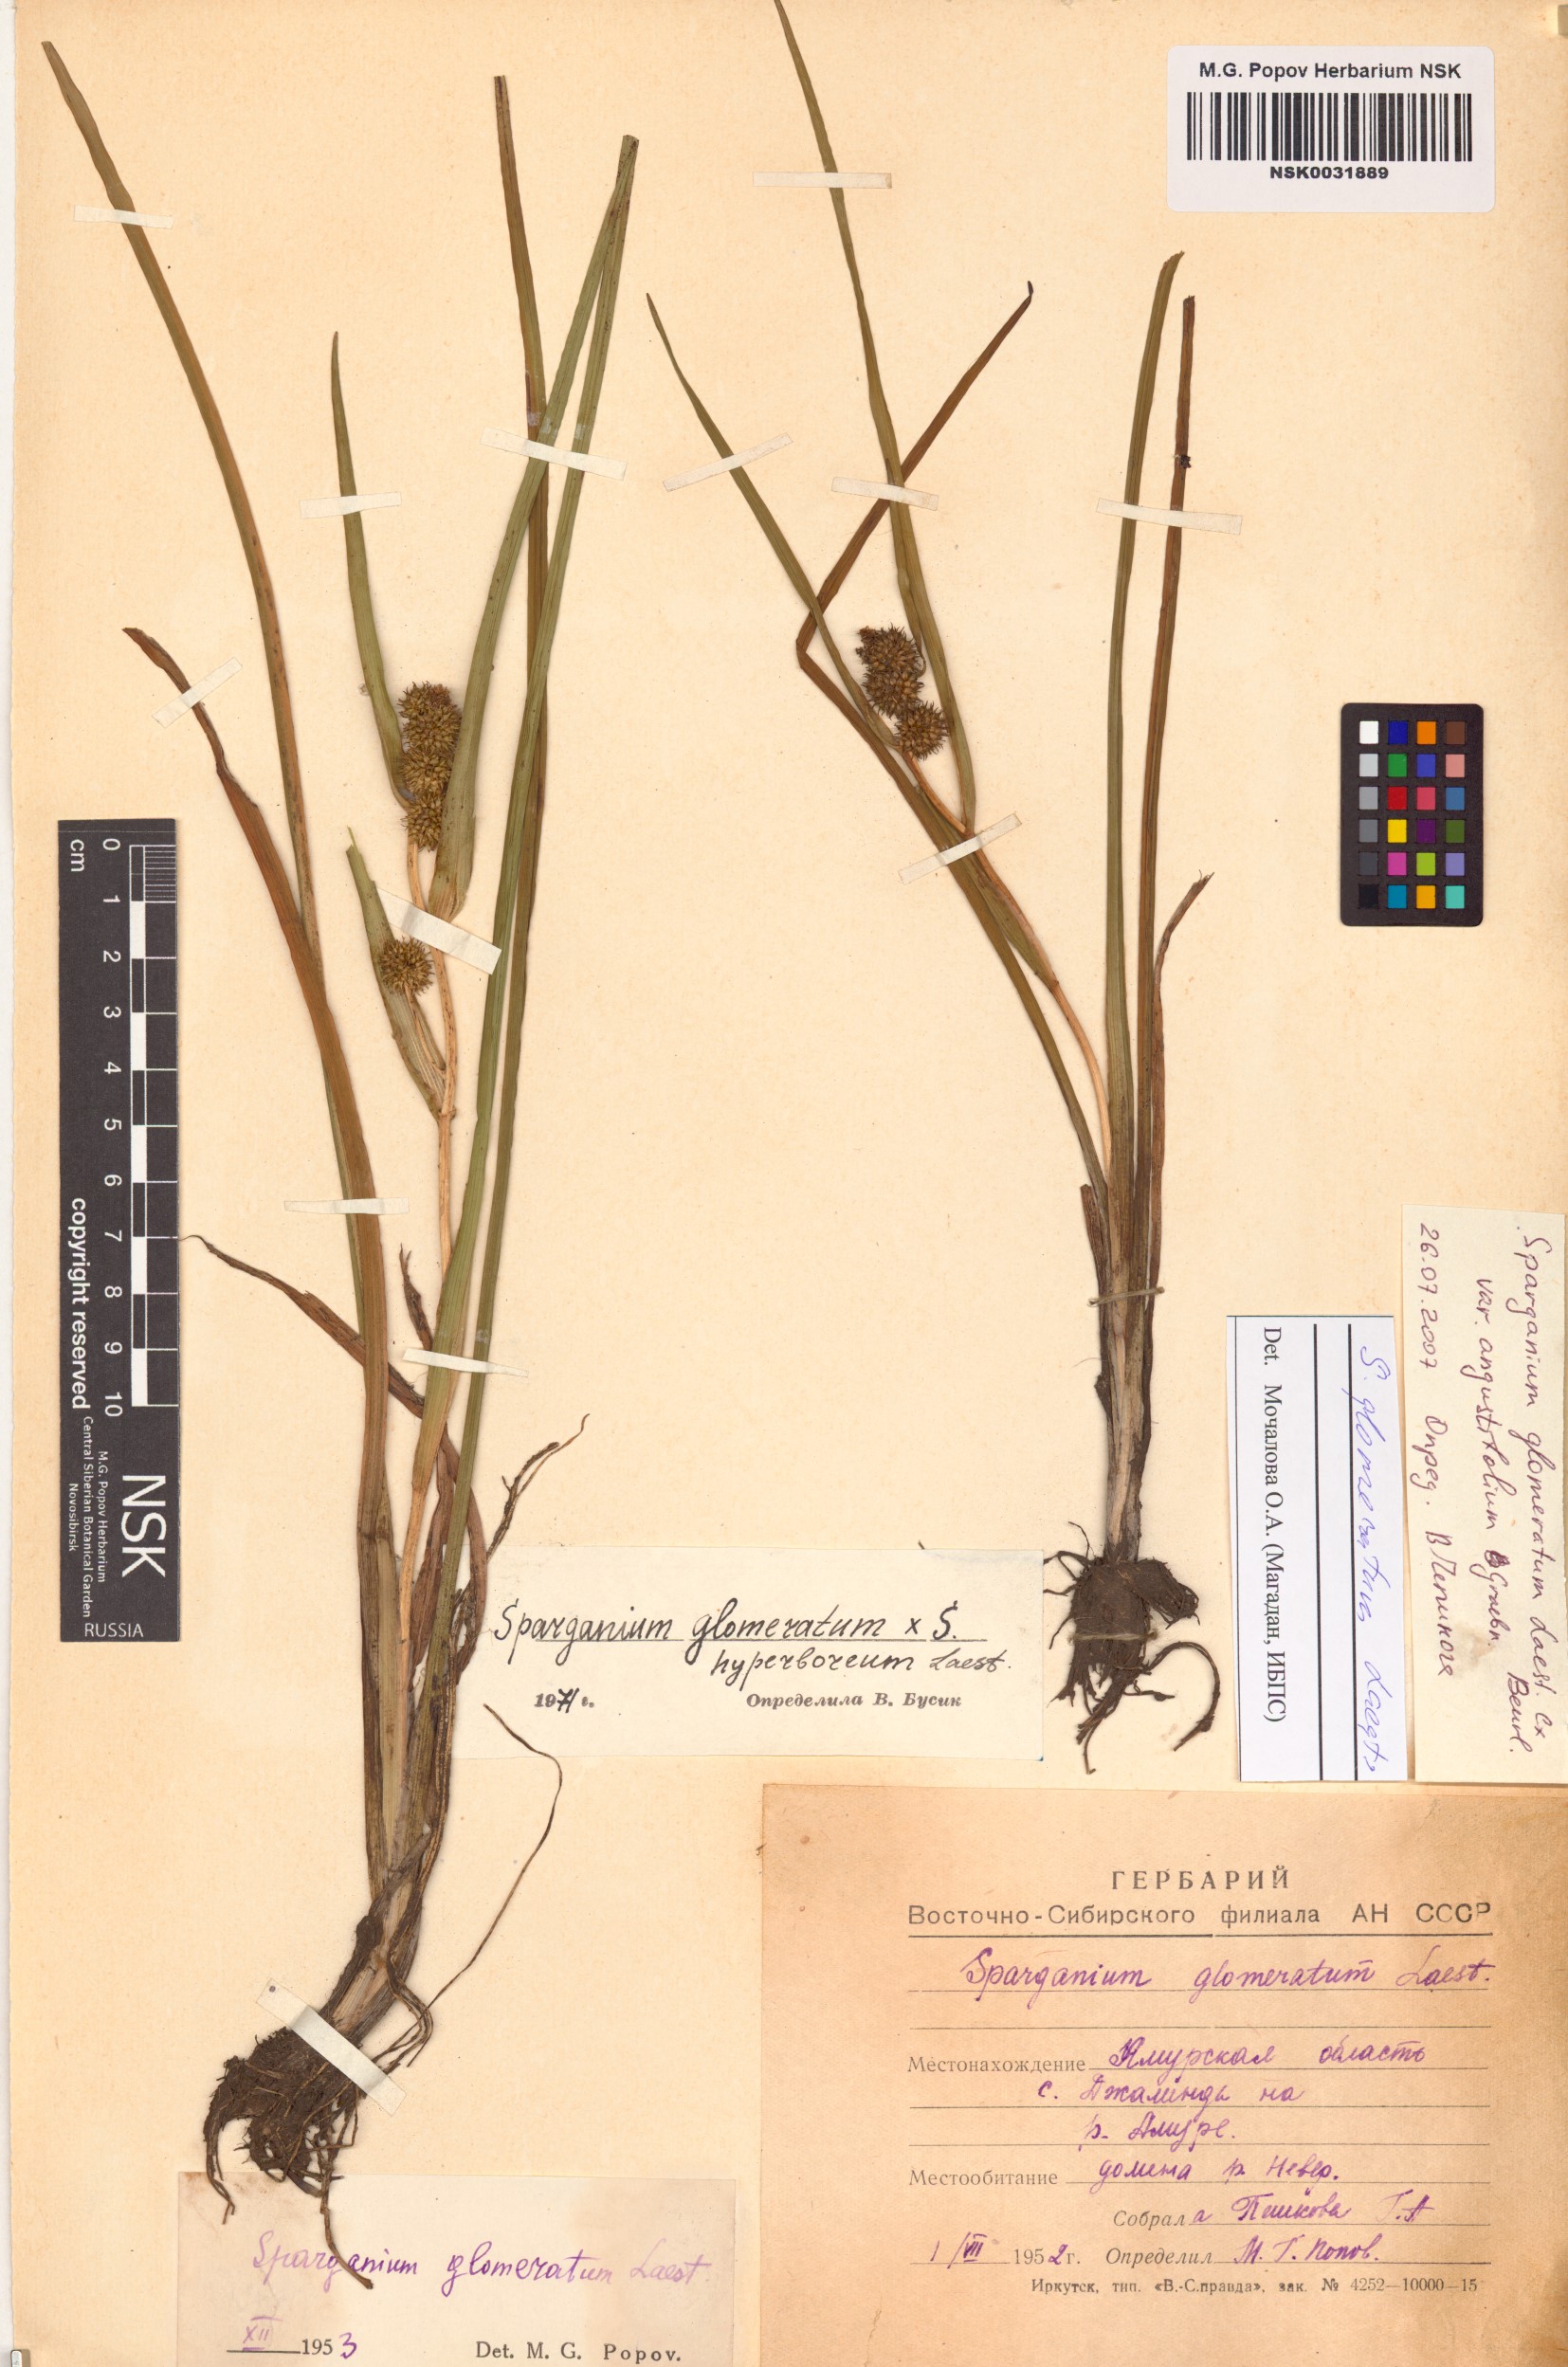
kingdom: Plantae
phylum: Tracheophyta
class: Liliopsida
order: Poales
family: Typhaceae
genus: Sparganium
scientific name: Sparganium glomeratum
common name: Clustered burreed
